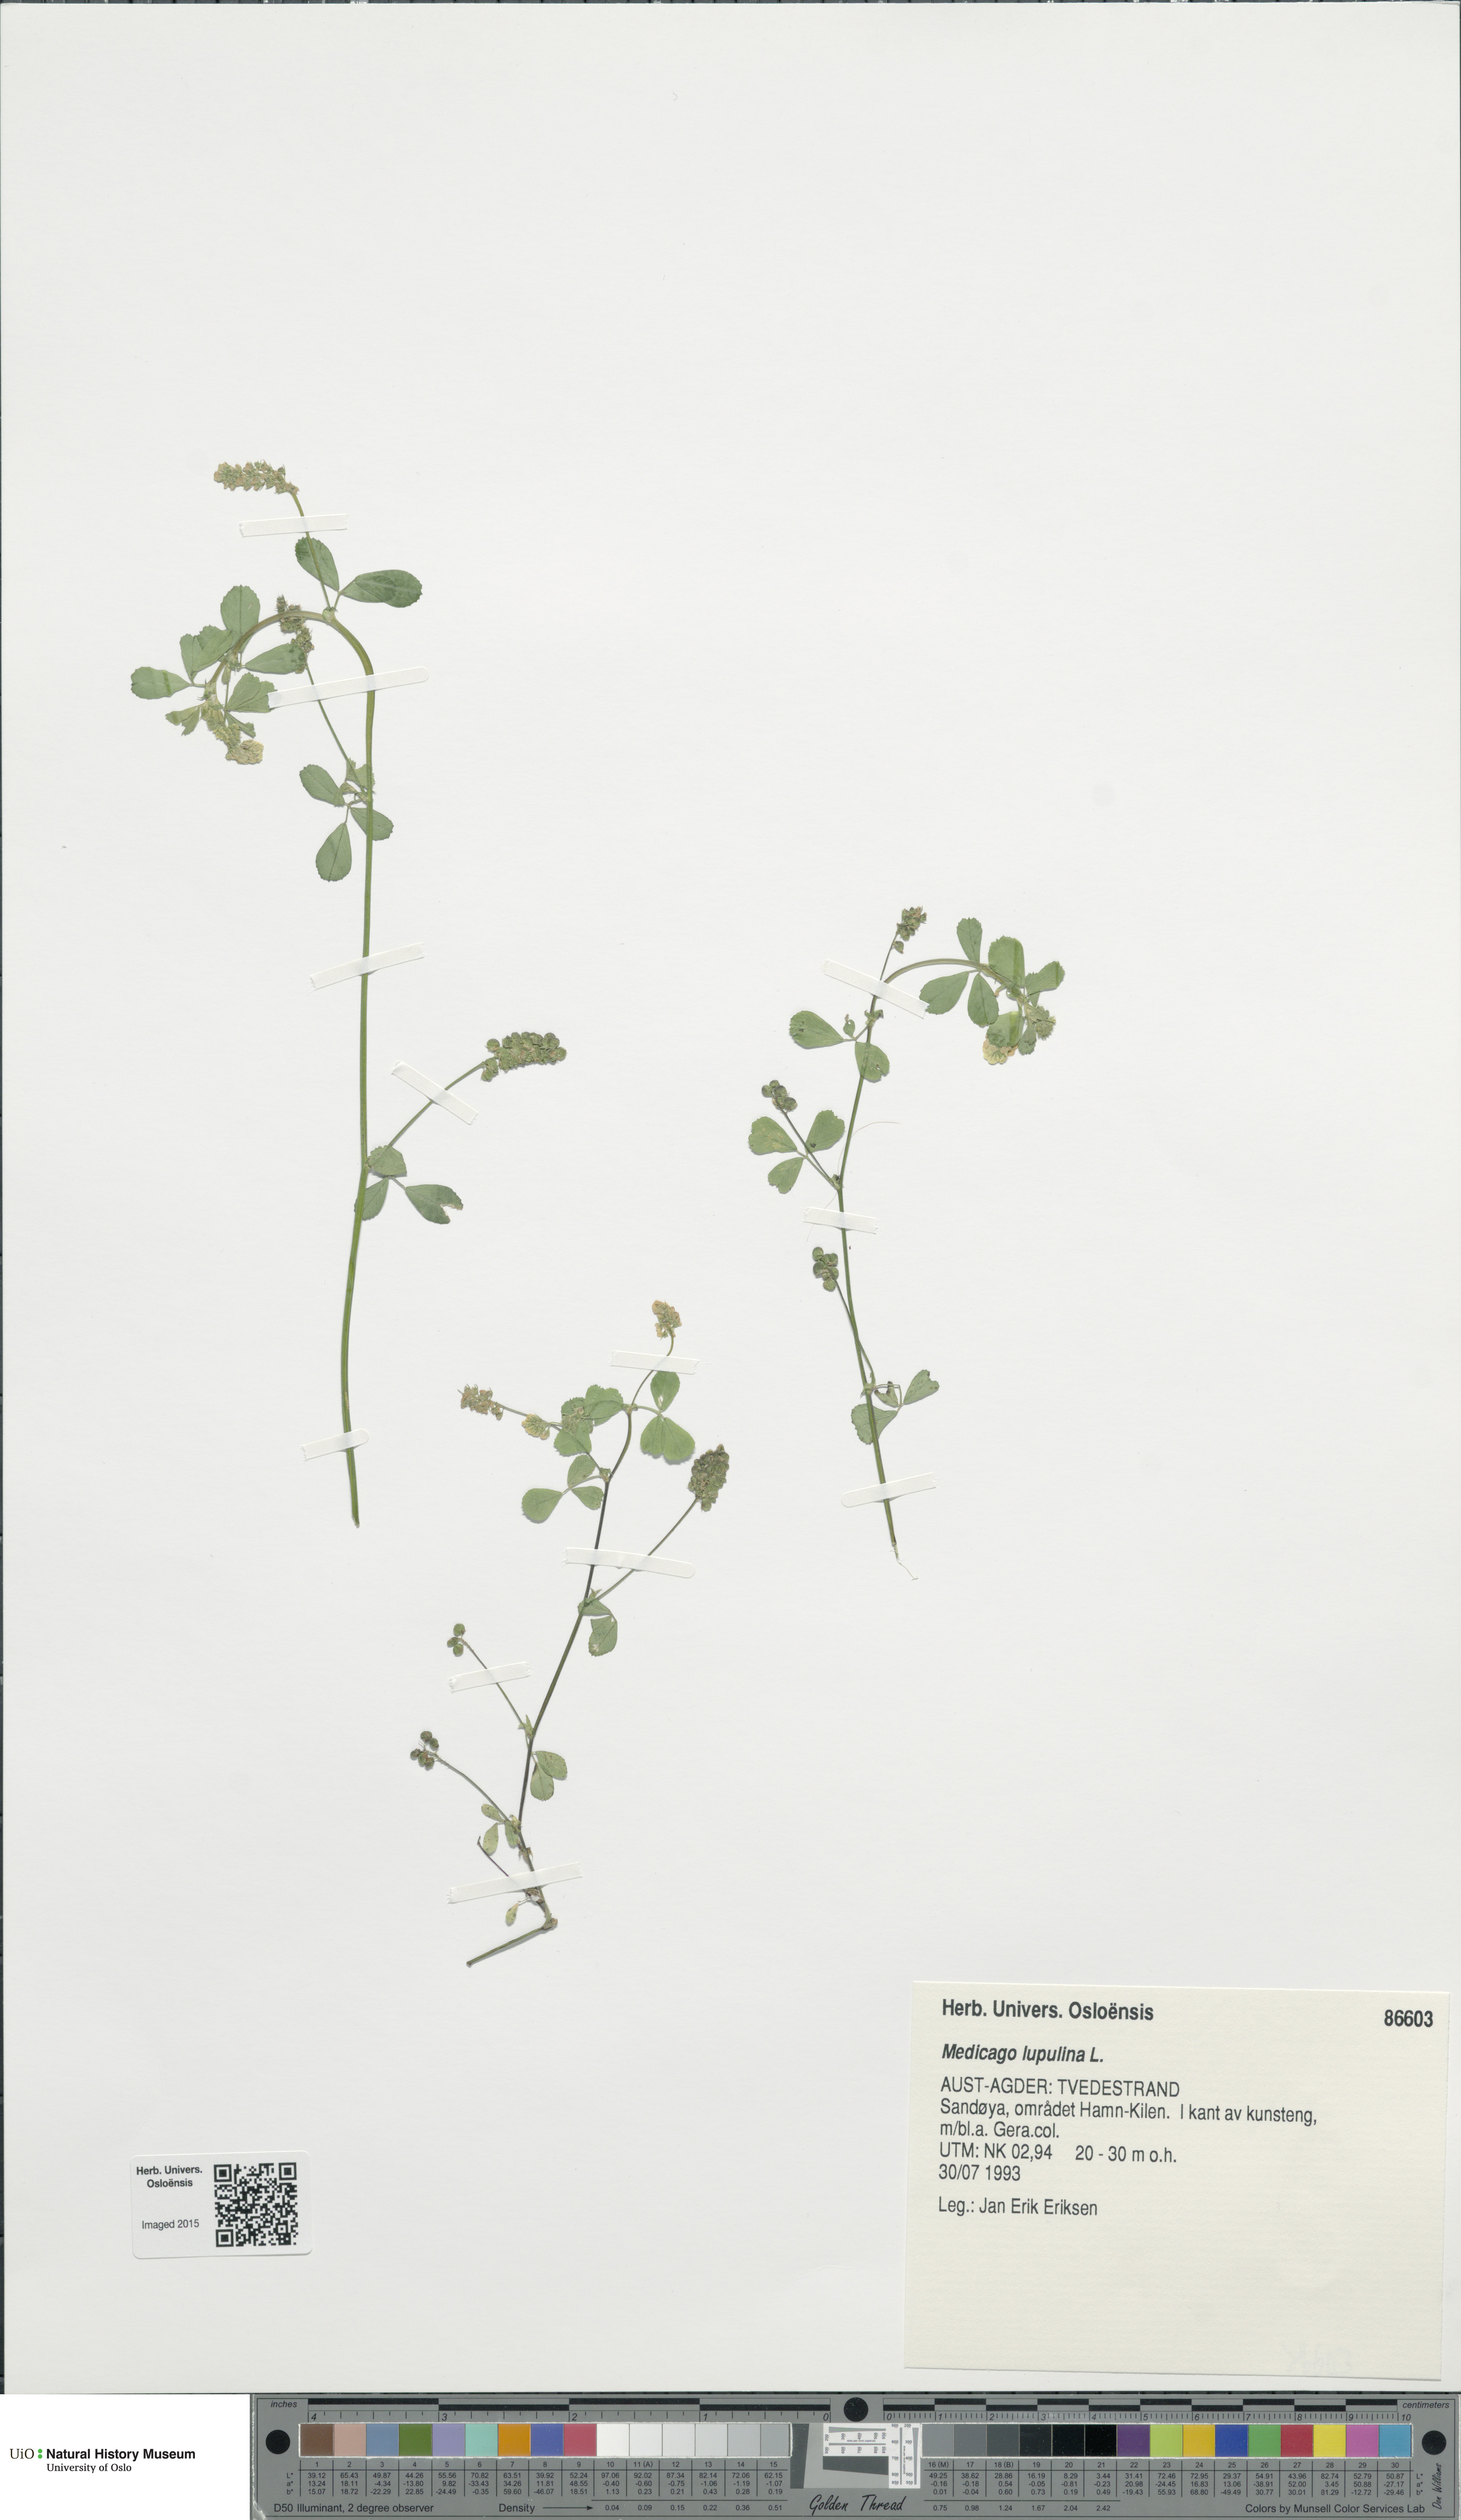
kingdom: Plantae
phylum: Tracheophyta
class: Magnoliopsida
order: Fabales
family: Fabaceae
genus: Medicago
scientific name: Medicago lupulina
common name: Black medick
